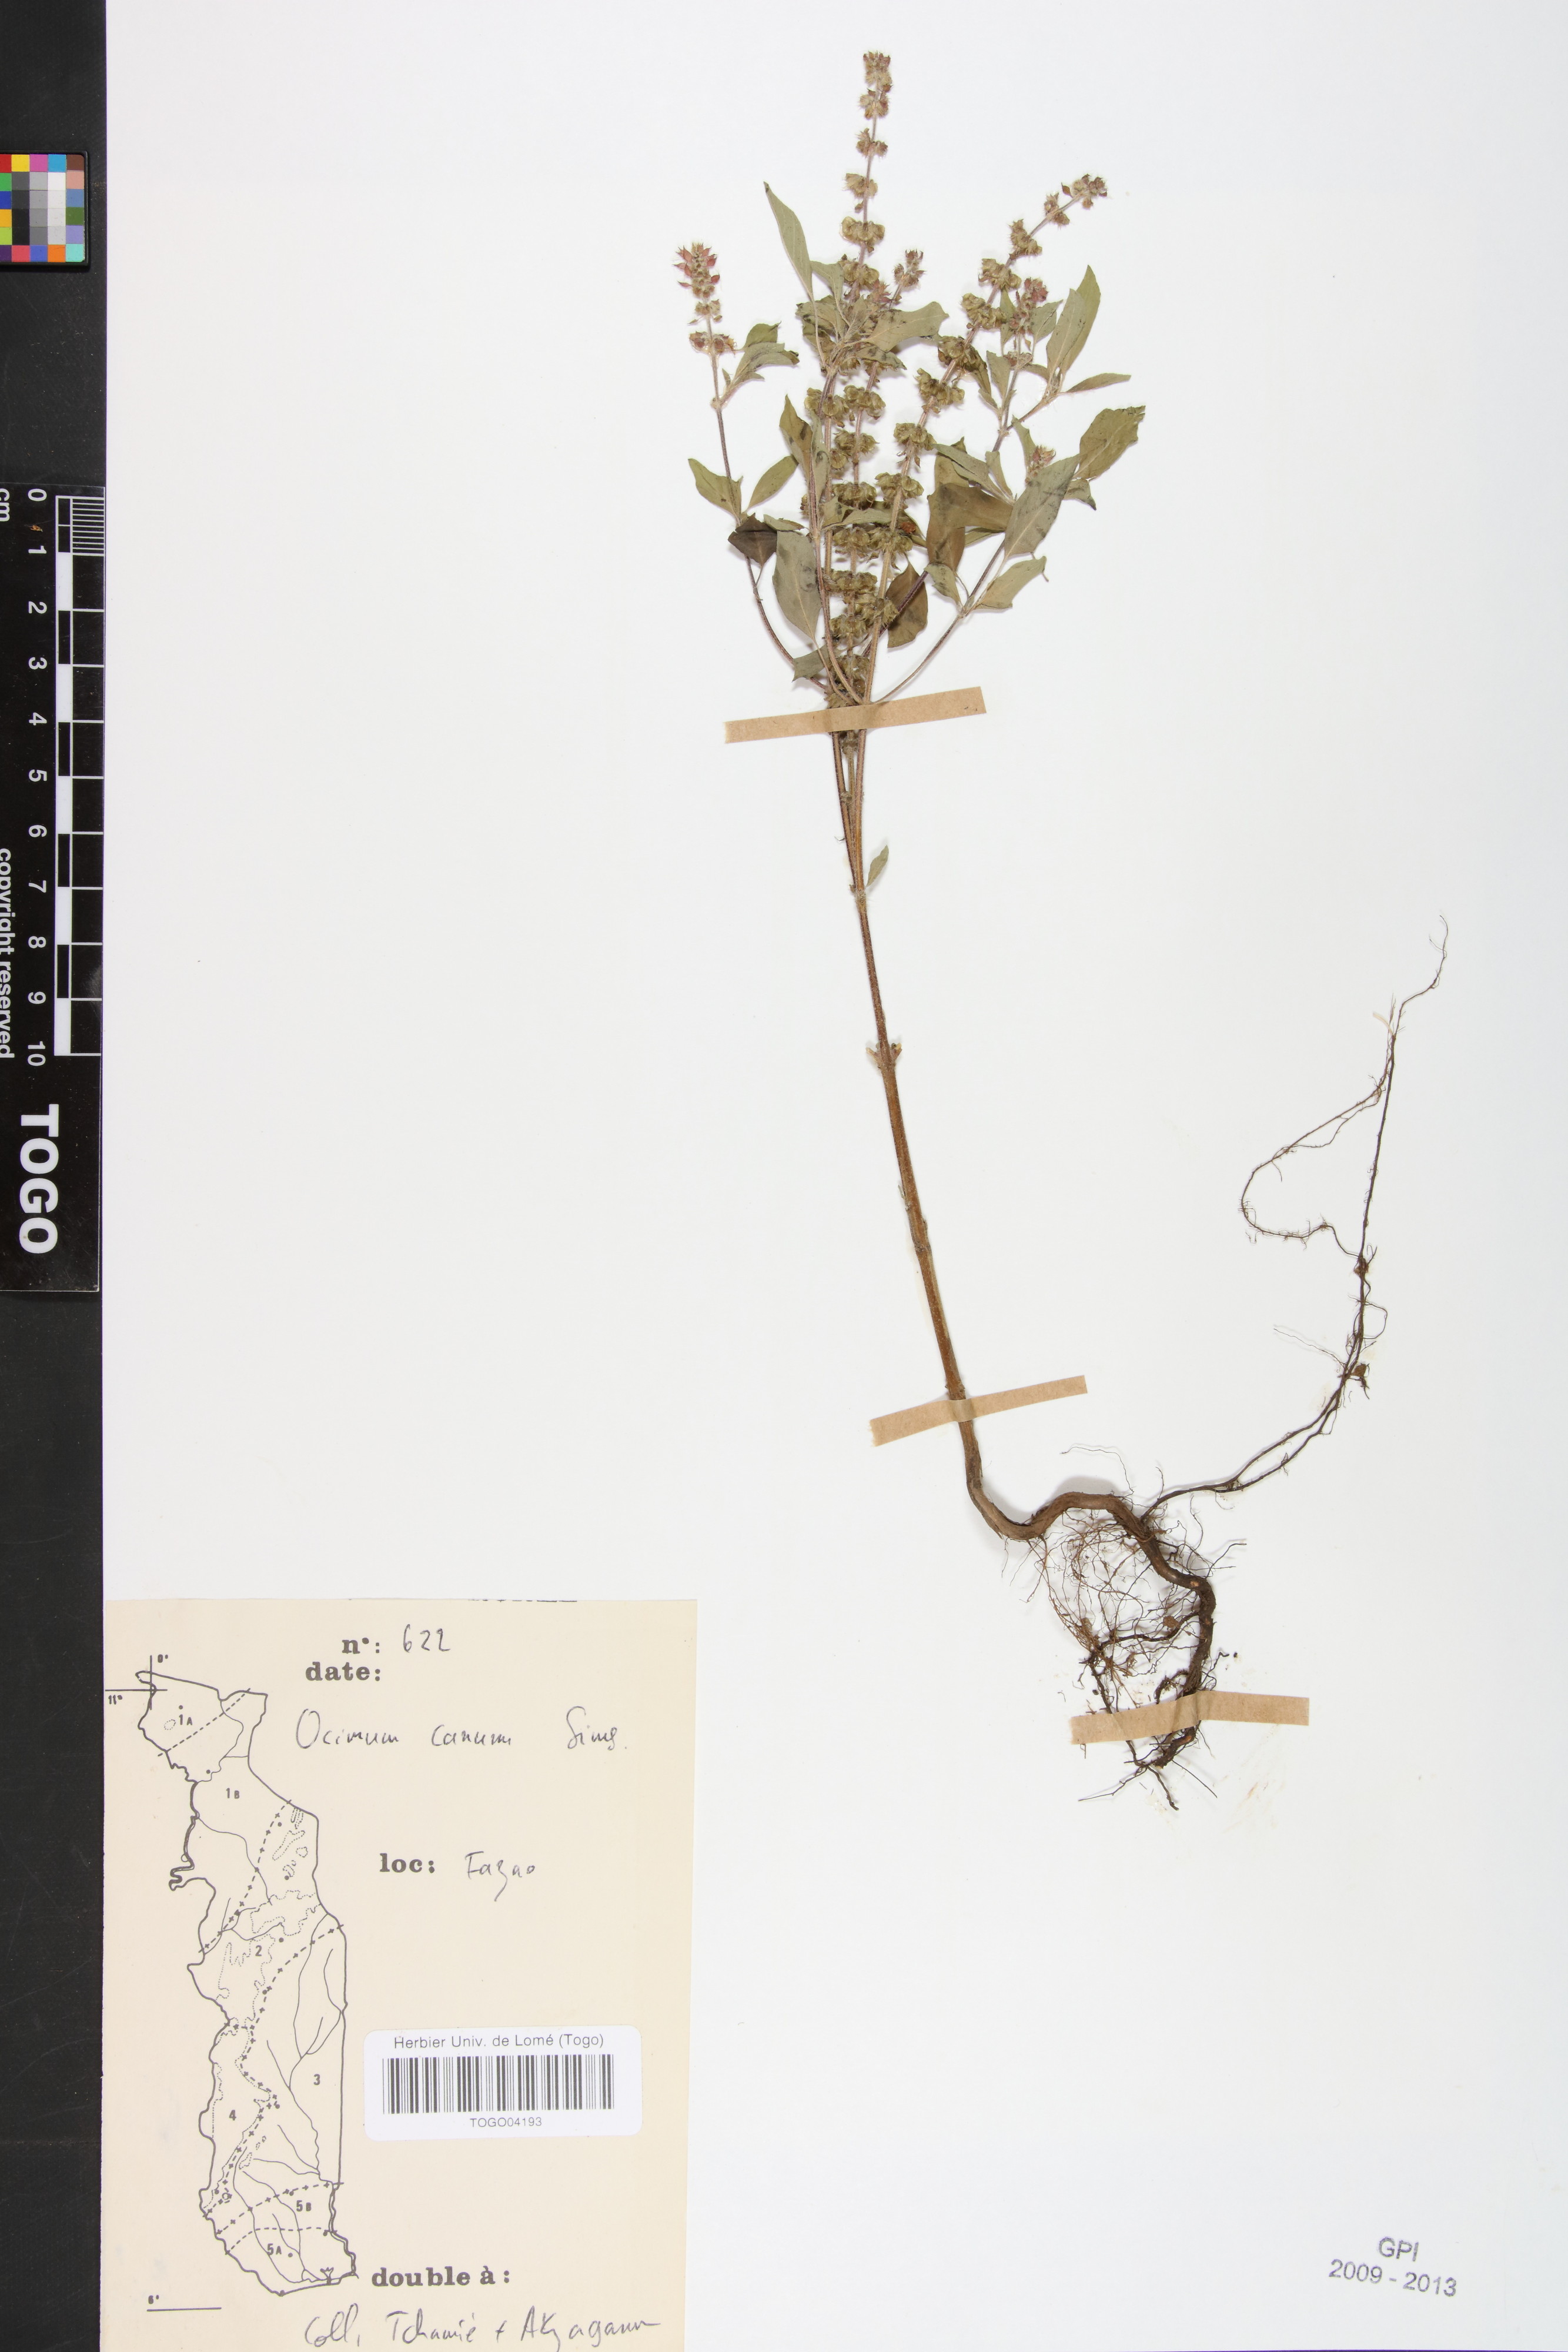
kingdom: Plantae
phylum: Tracheophyta
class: Magnoliopsida
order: Lamiales
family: Lamiaceae
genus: Ocimum
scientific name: Ocimum americanum
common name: American basil
